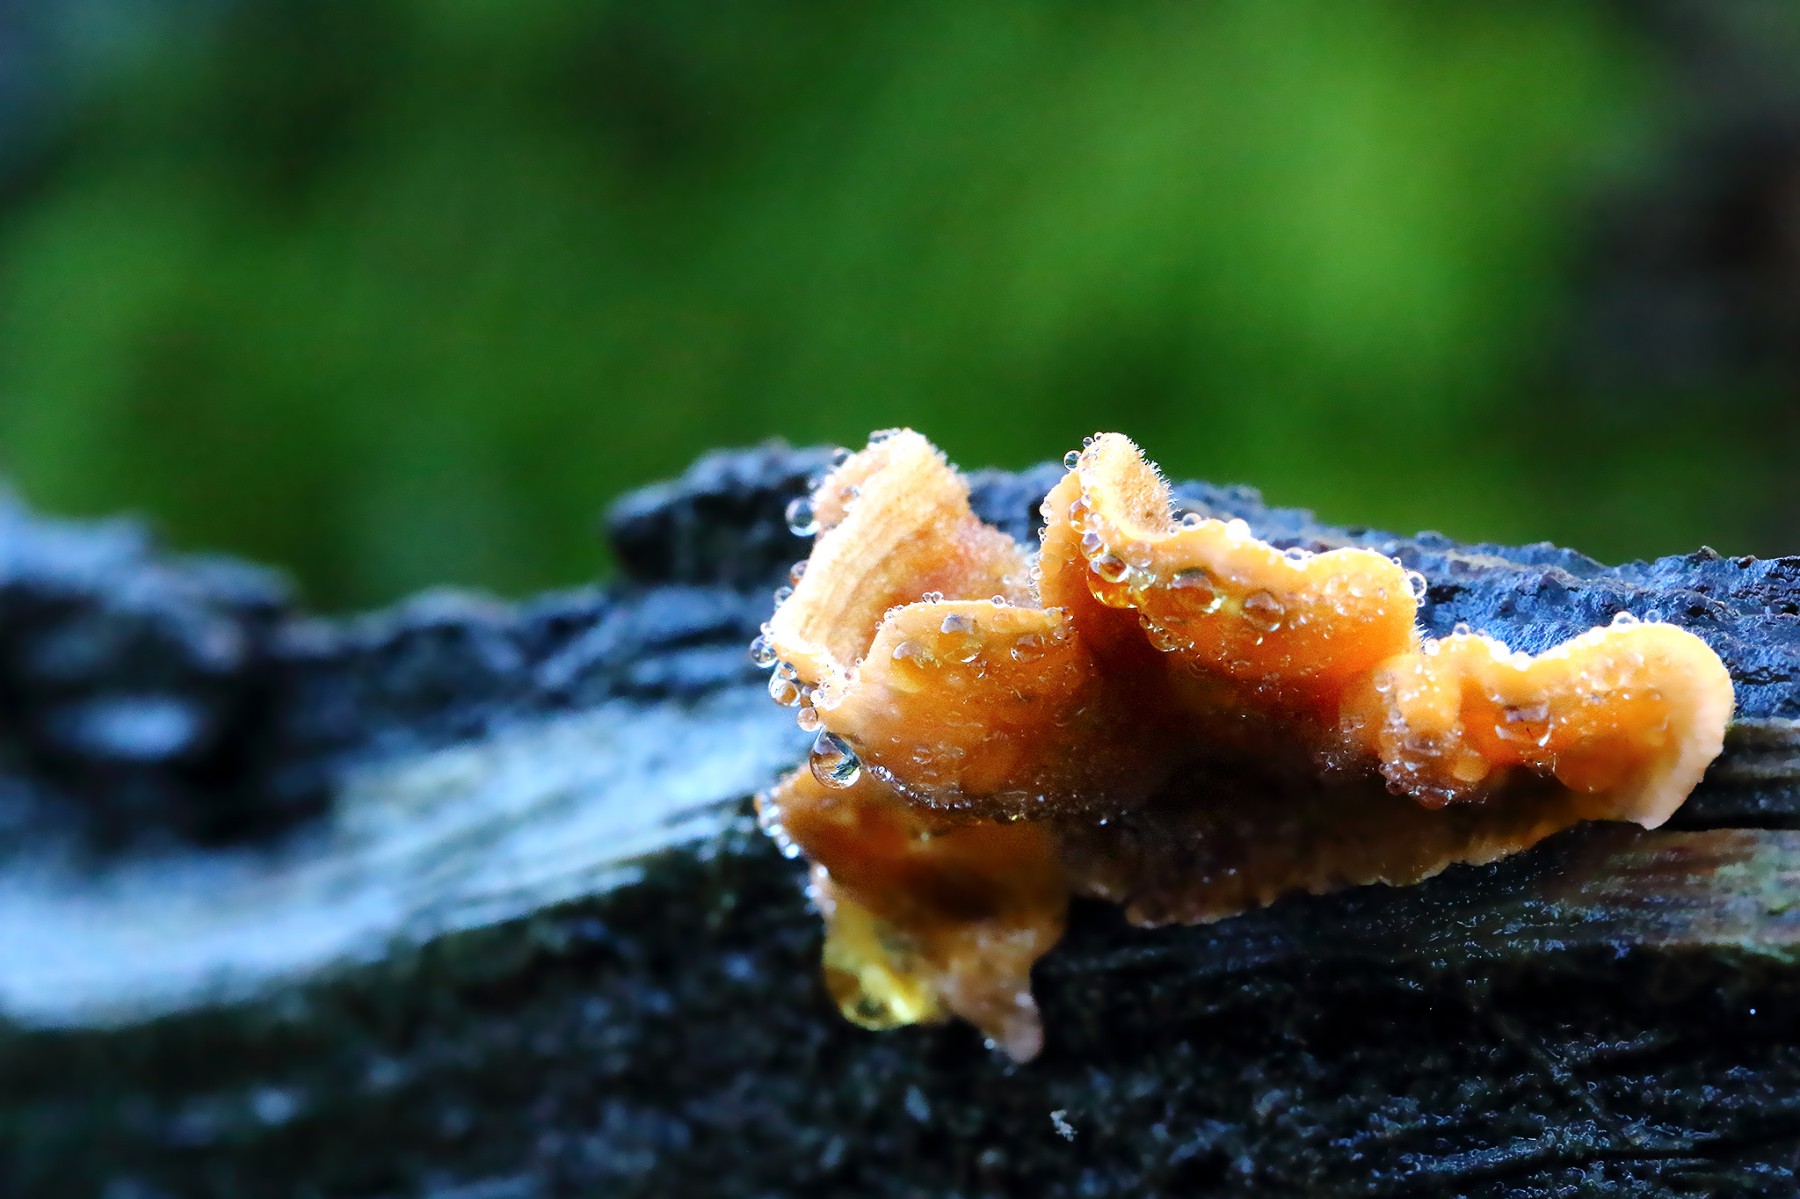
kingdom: Fungi
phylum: Basidiomycota
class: Agaricomycetes
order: Russulales
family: Stereaceae
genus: Stereum
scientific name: Stereum hirsutum
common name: håret lædersvamp
